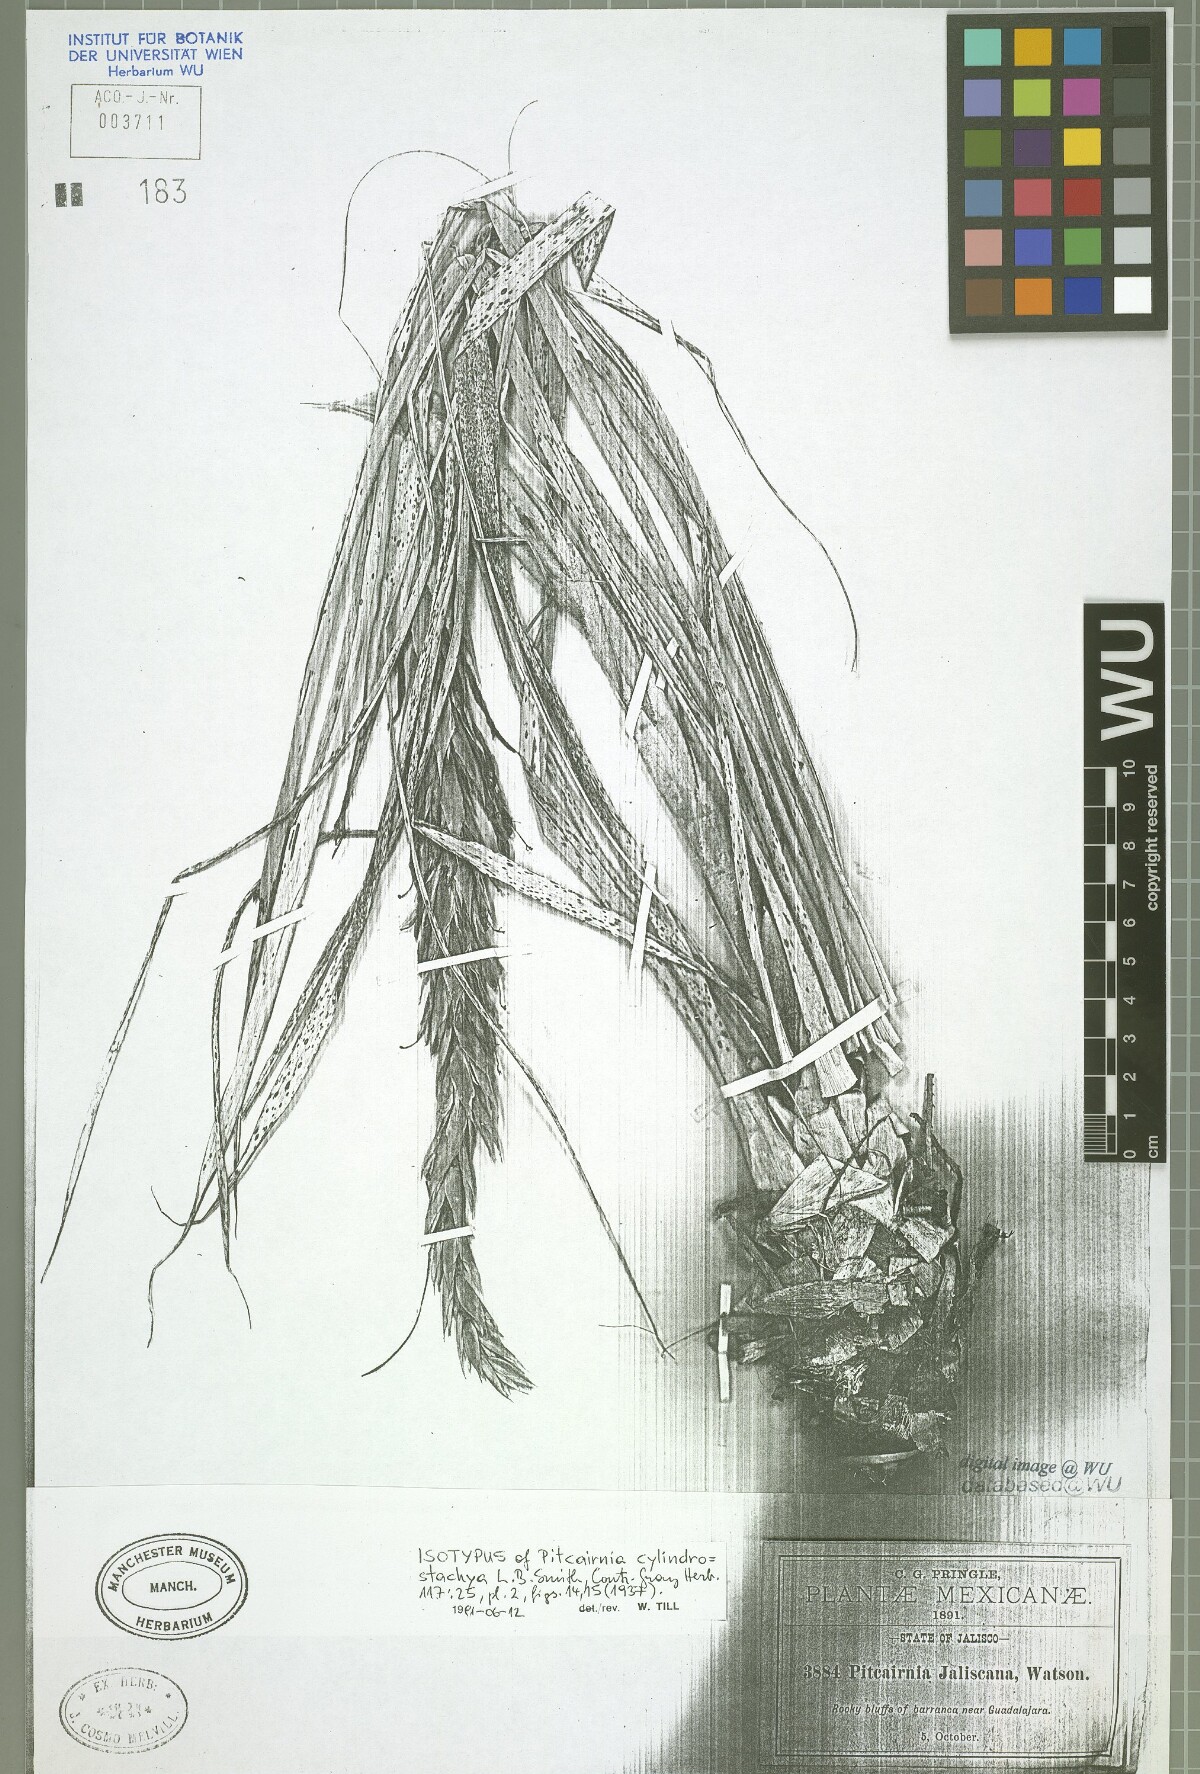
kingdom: Plantae
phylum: Tracheophyta
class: Liliopsida
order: Poales
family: Bromeliaceae
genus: Pitcairnia
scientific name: Pitcairnia cylindrostachya
